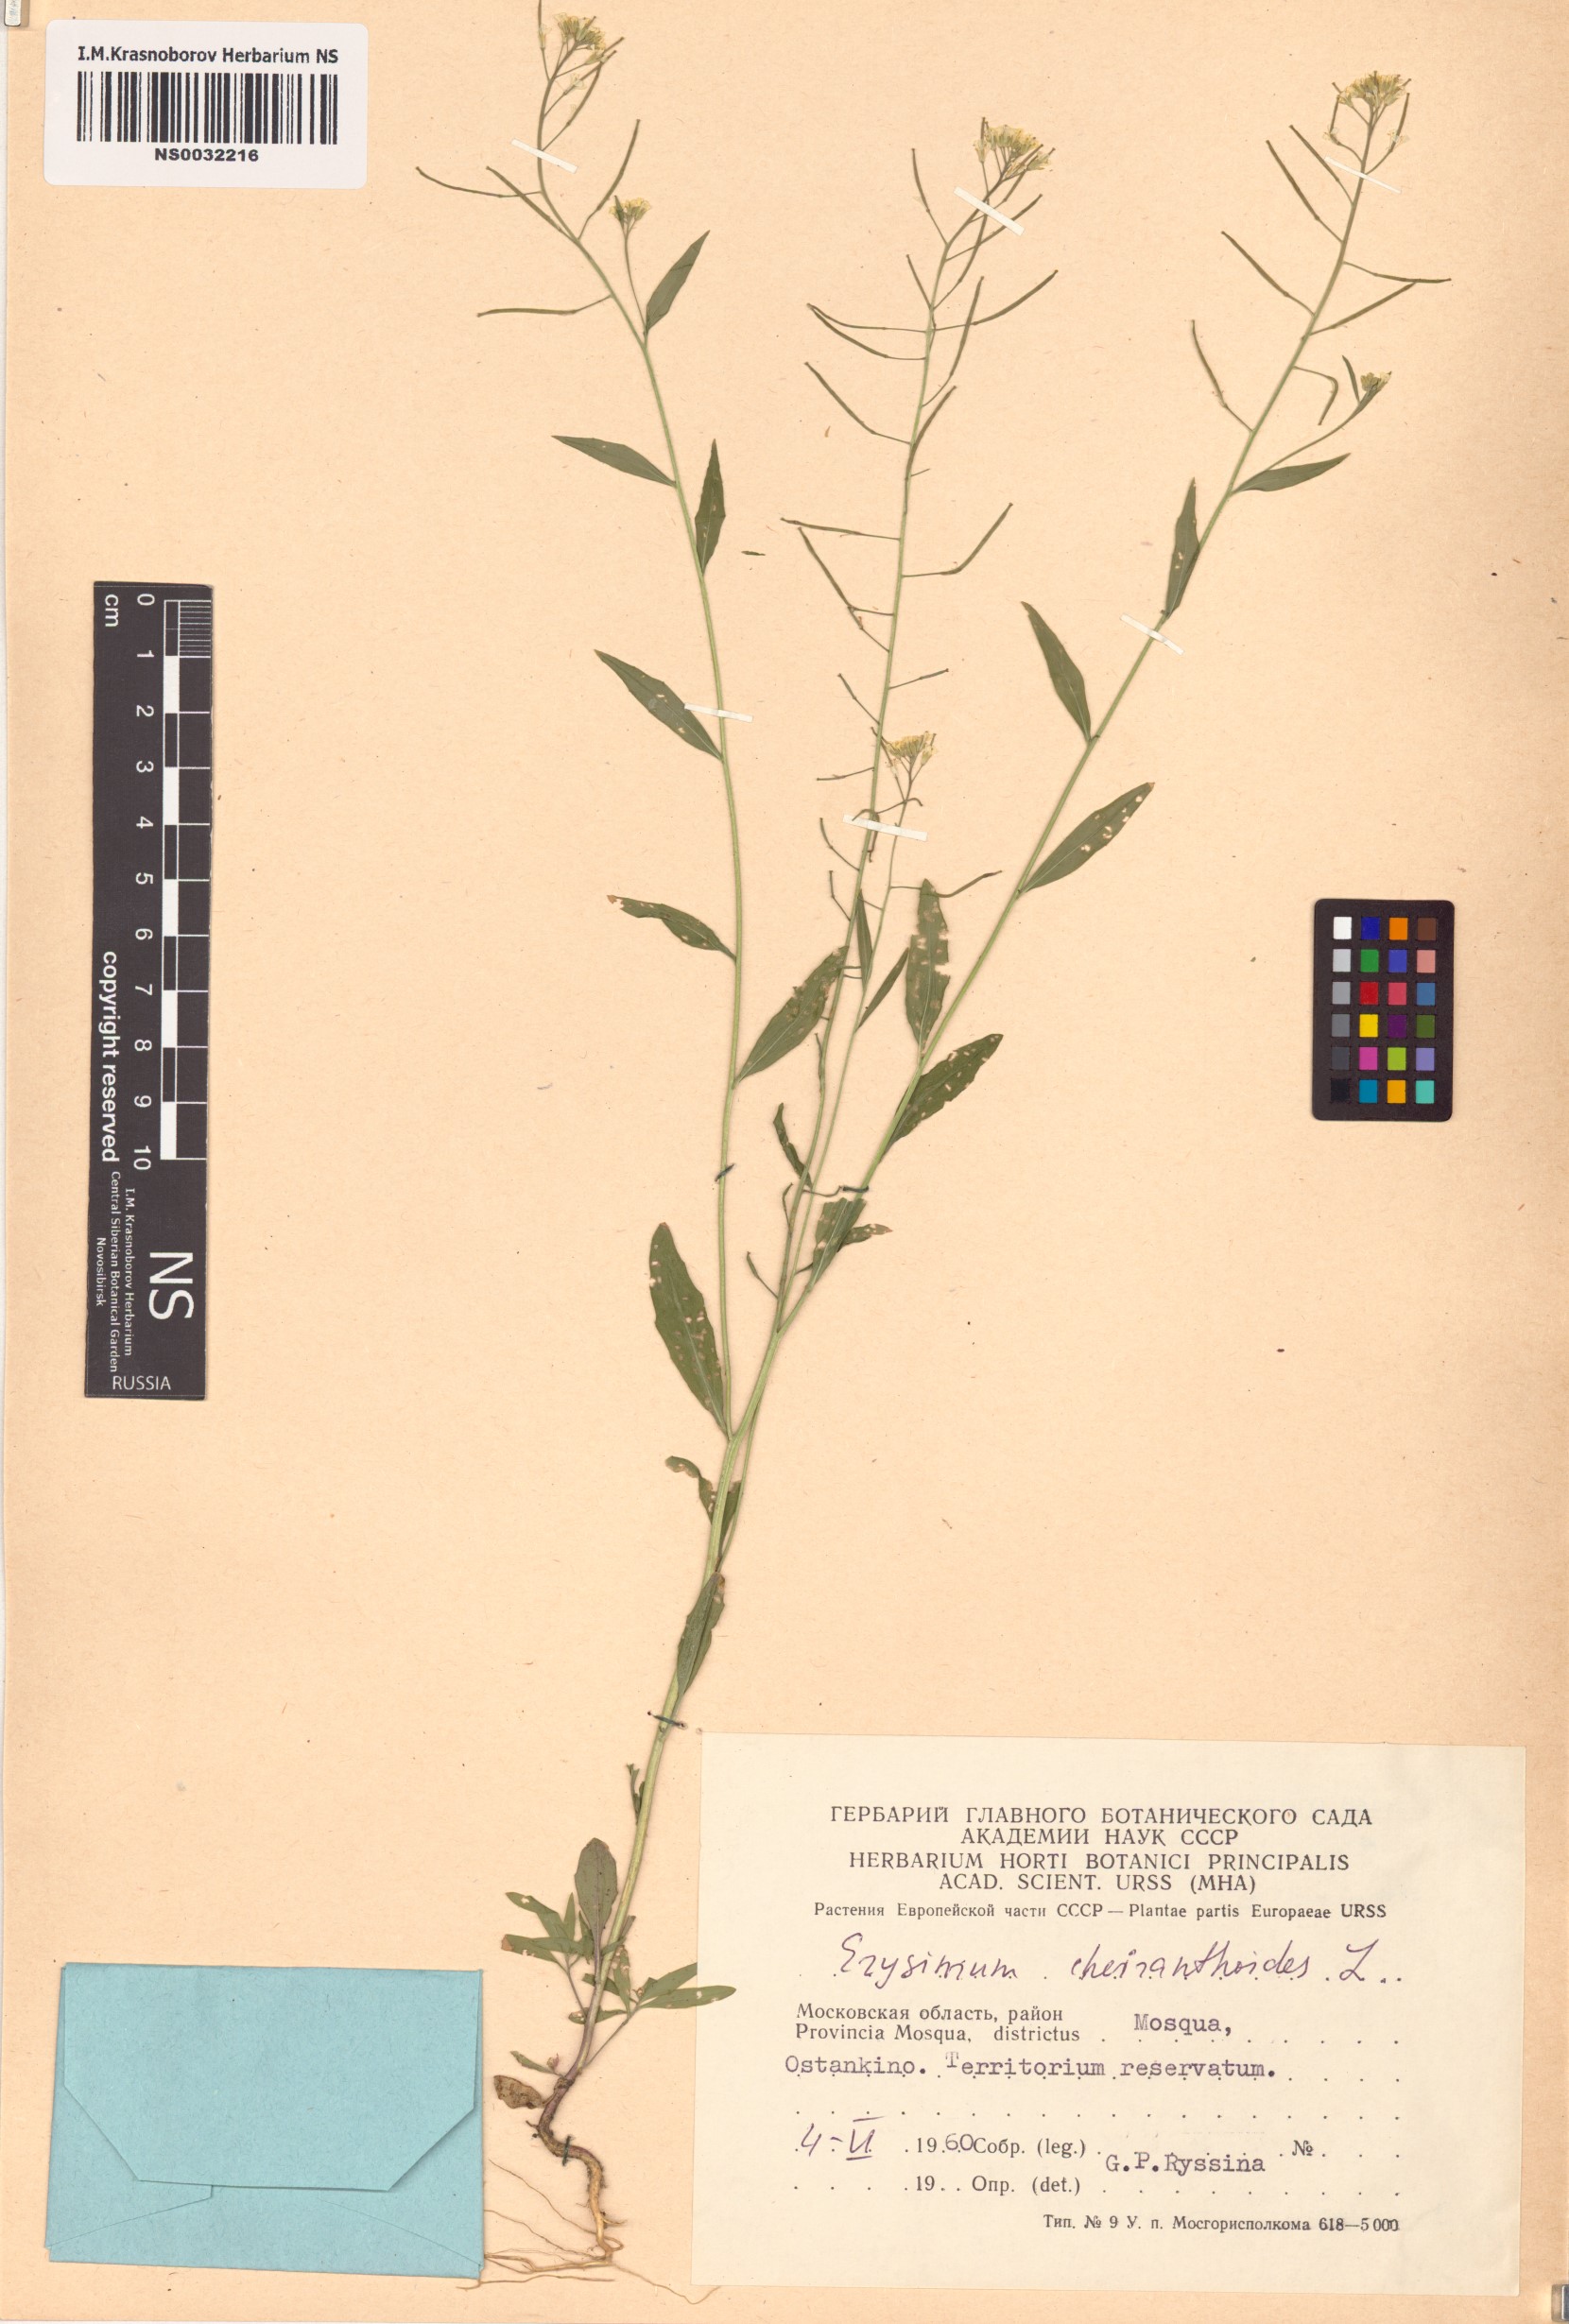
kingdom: Plantae
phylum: Tracheophyta
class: Magnoliopsida
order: Brassicales
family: Brassicaceae
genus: Erysimum
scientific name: Erysimum cheiranthoides
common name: Treacle mustard
